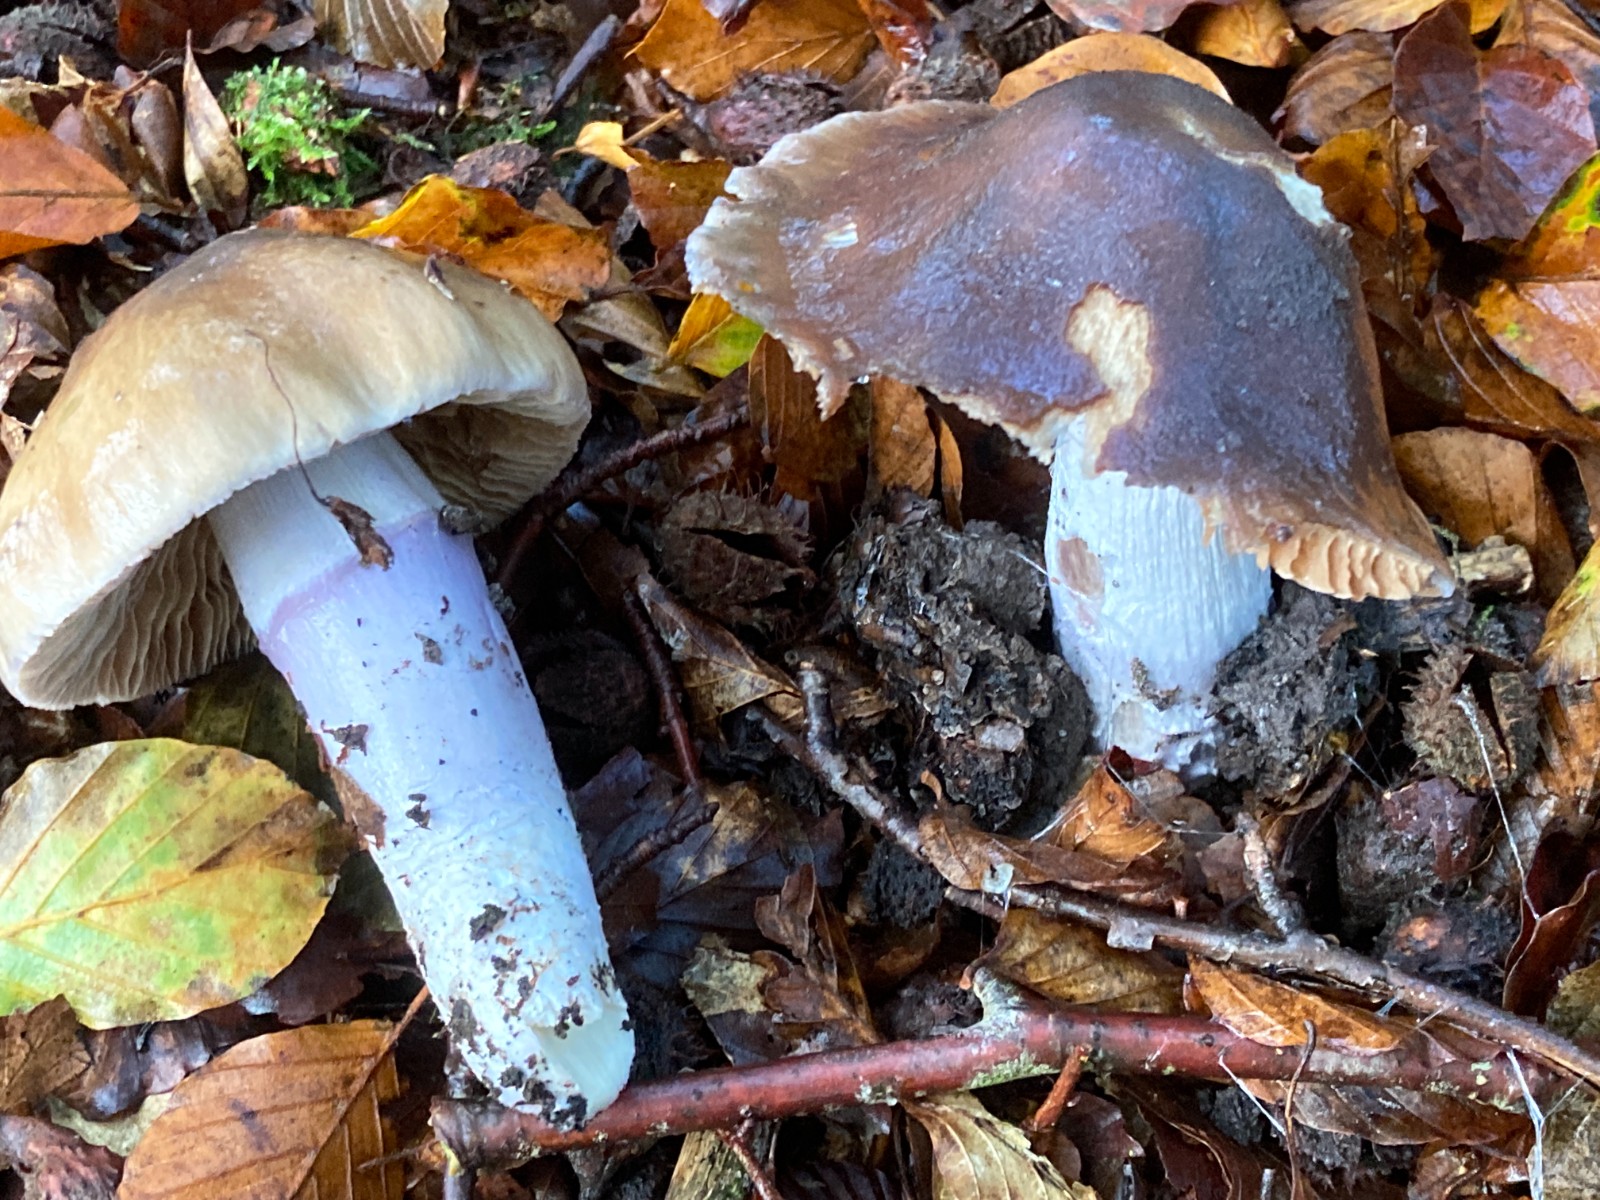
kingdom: Fungi
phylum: Basidiomycota
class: Agaricomycetes
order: Agaricales
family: Cortinariaceae
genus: Cortinarius
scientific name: Cortinarius elatior
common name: høj slørhat
